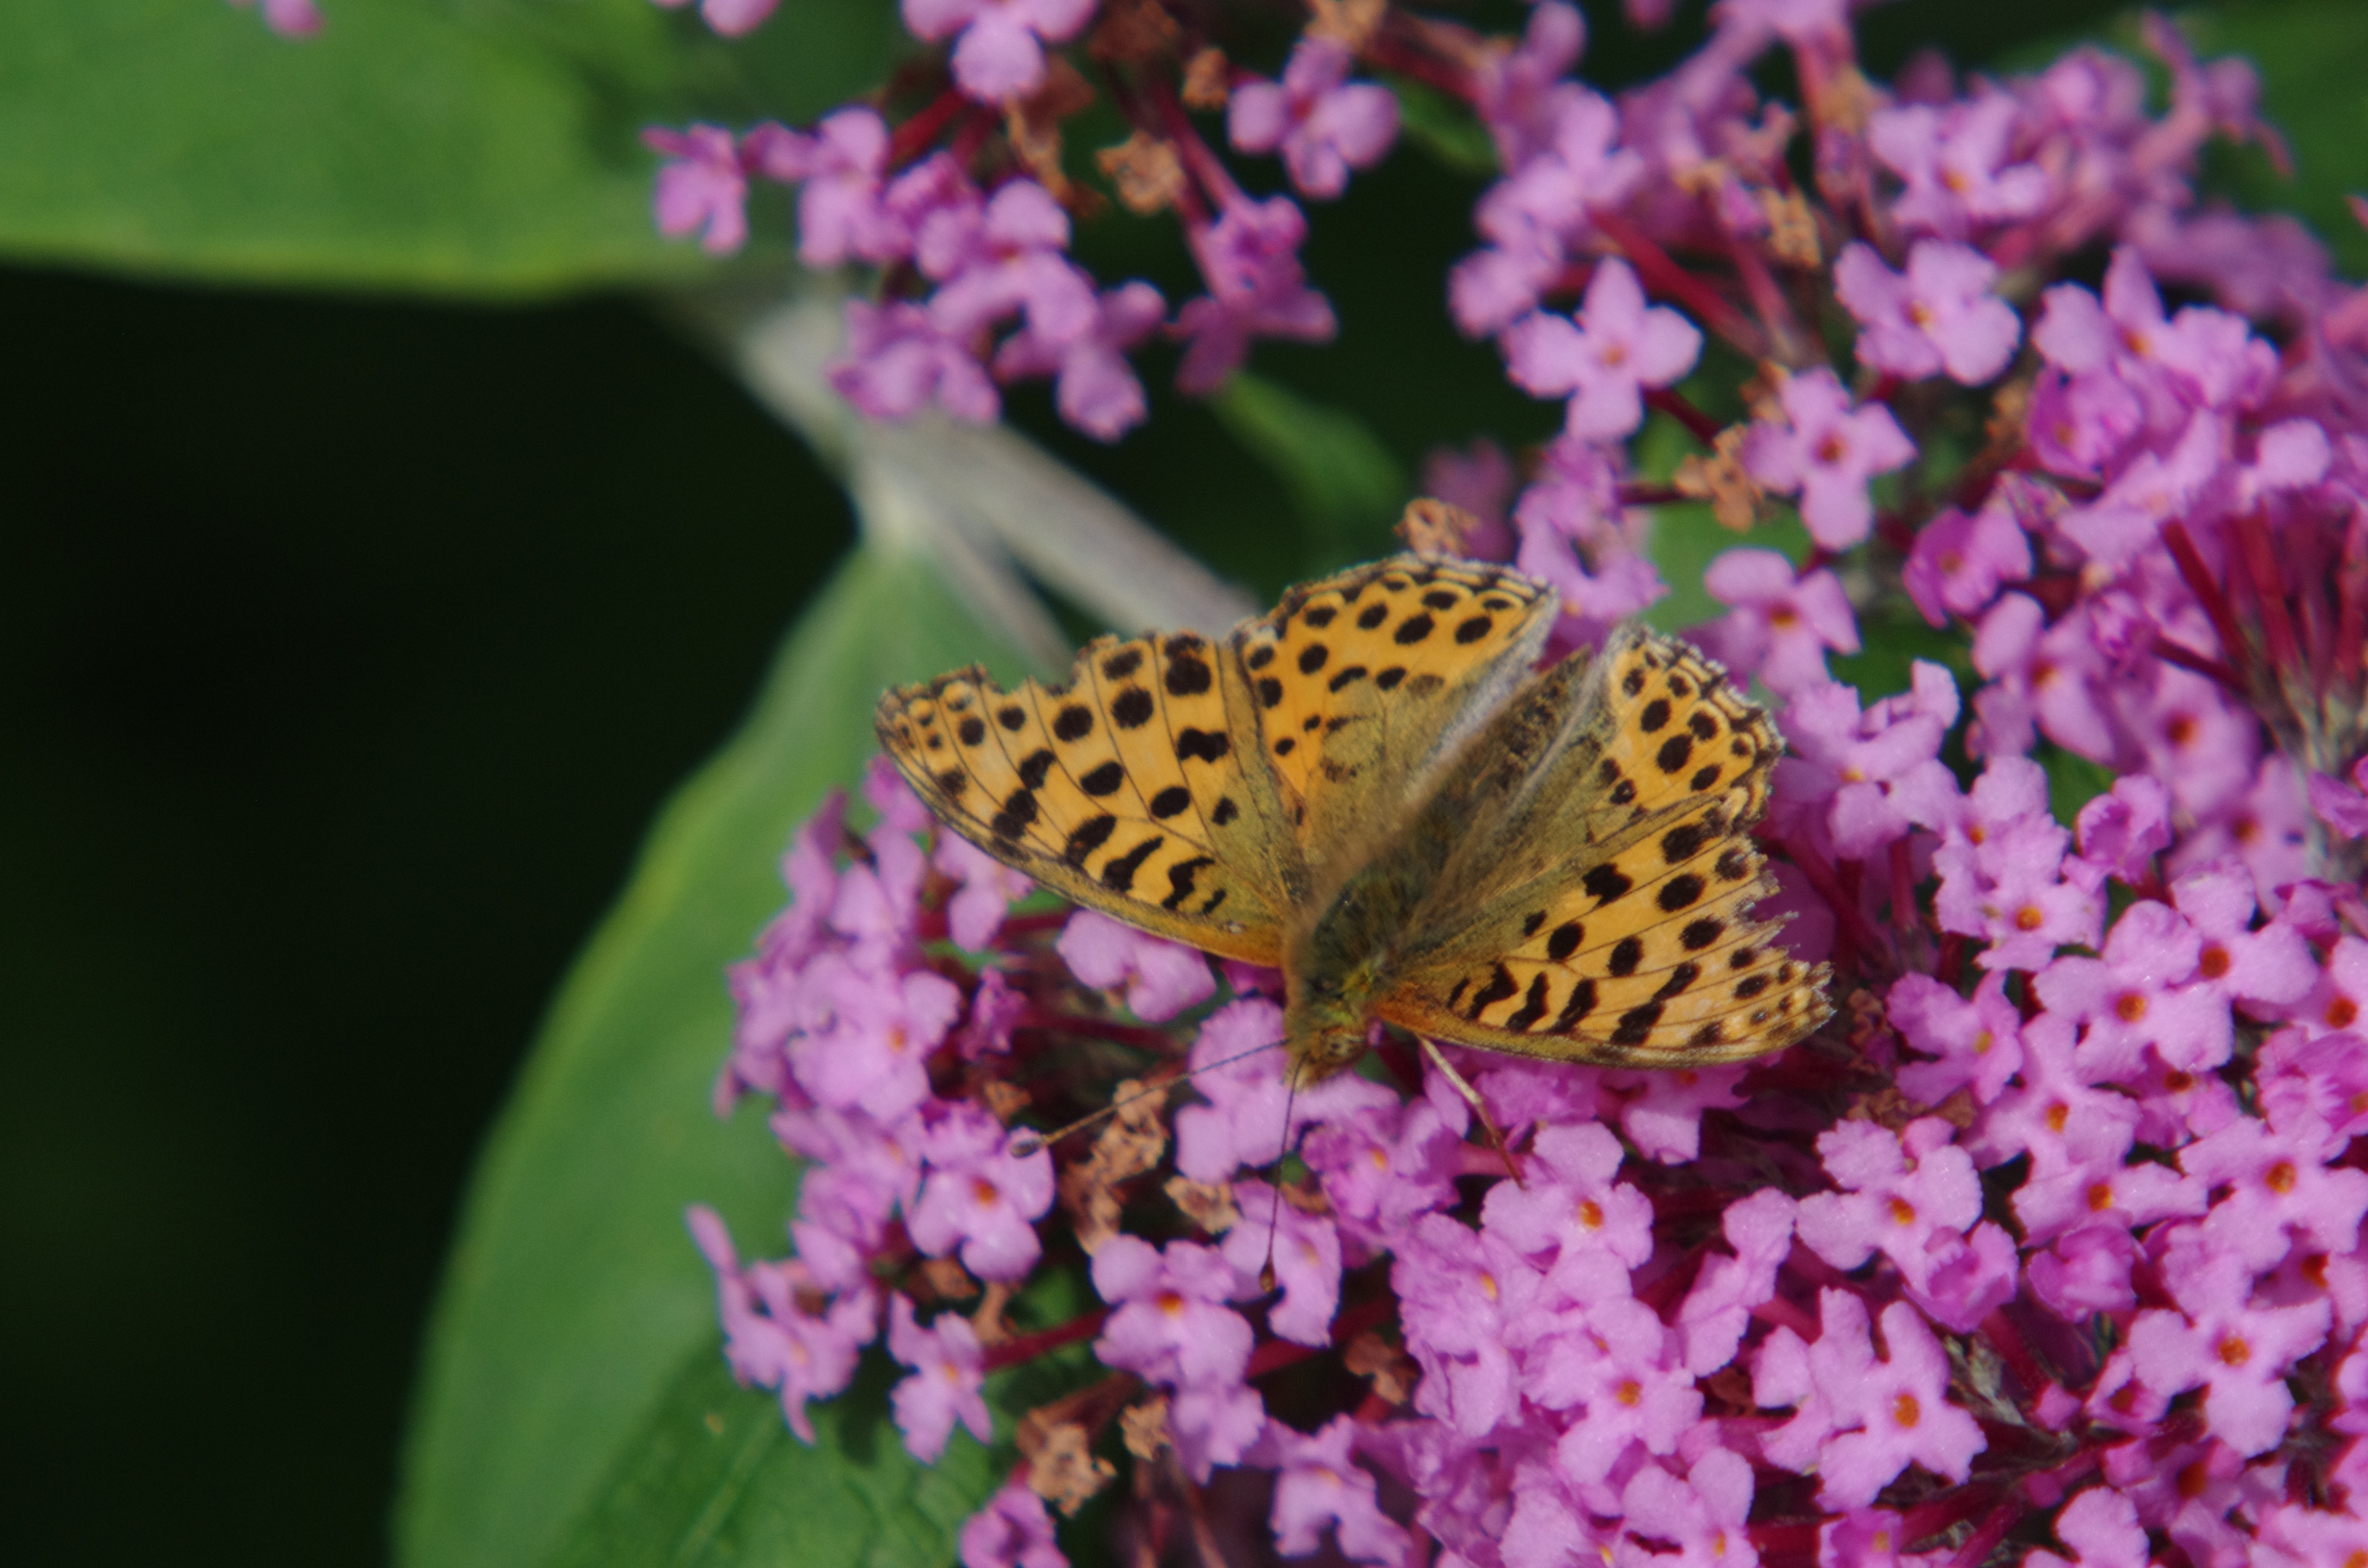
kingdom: Animalia
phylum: Arthropoda
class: Insecta
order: Lepidoptera
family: Nymphalidae
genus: Issoria
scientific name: Issoria lathonia
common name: Storplettet perlemorsommerfugl
